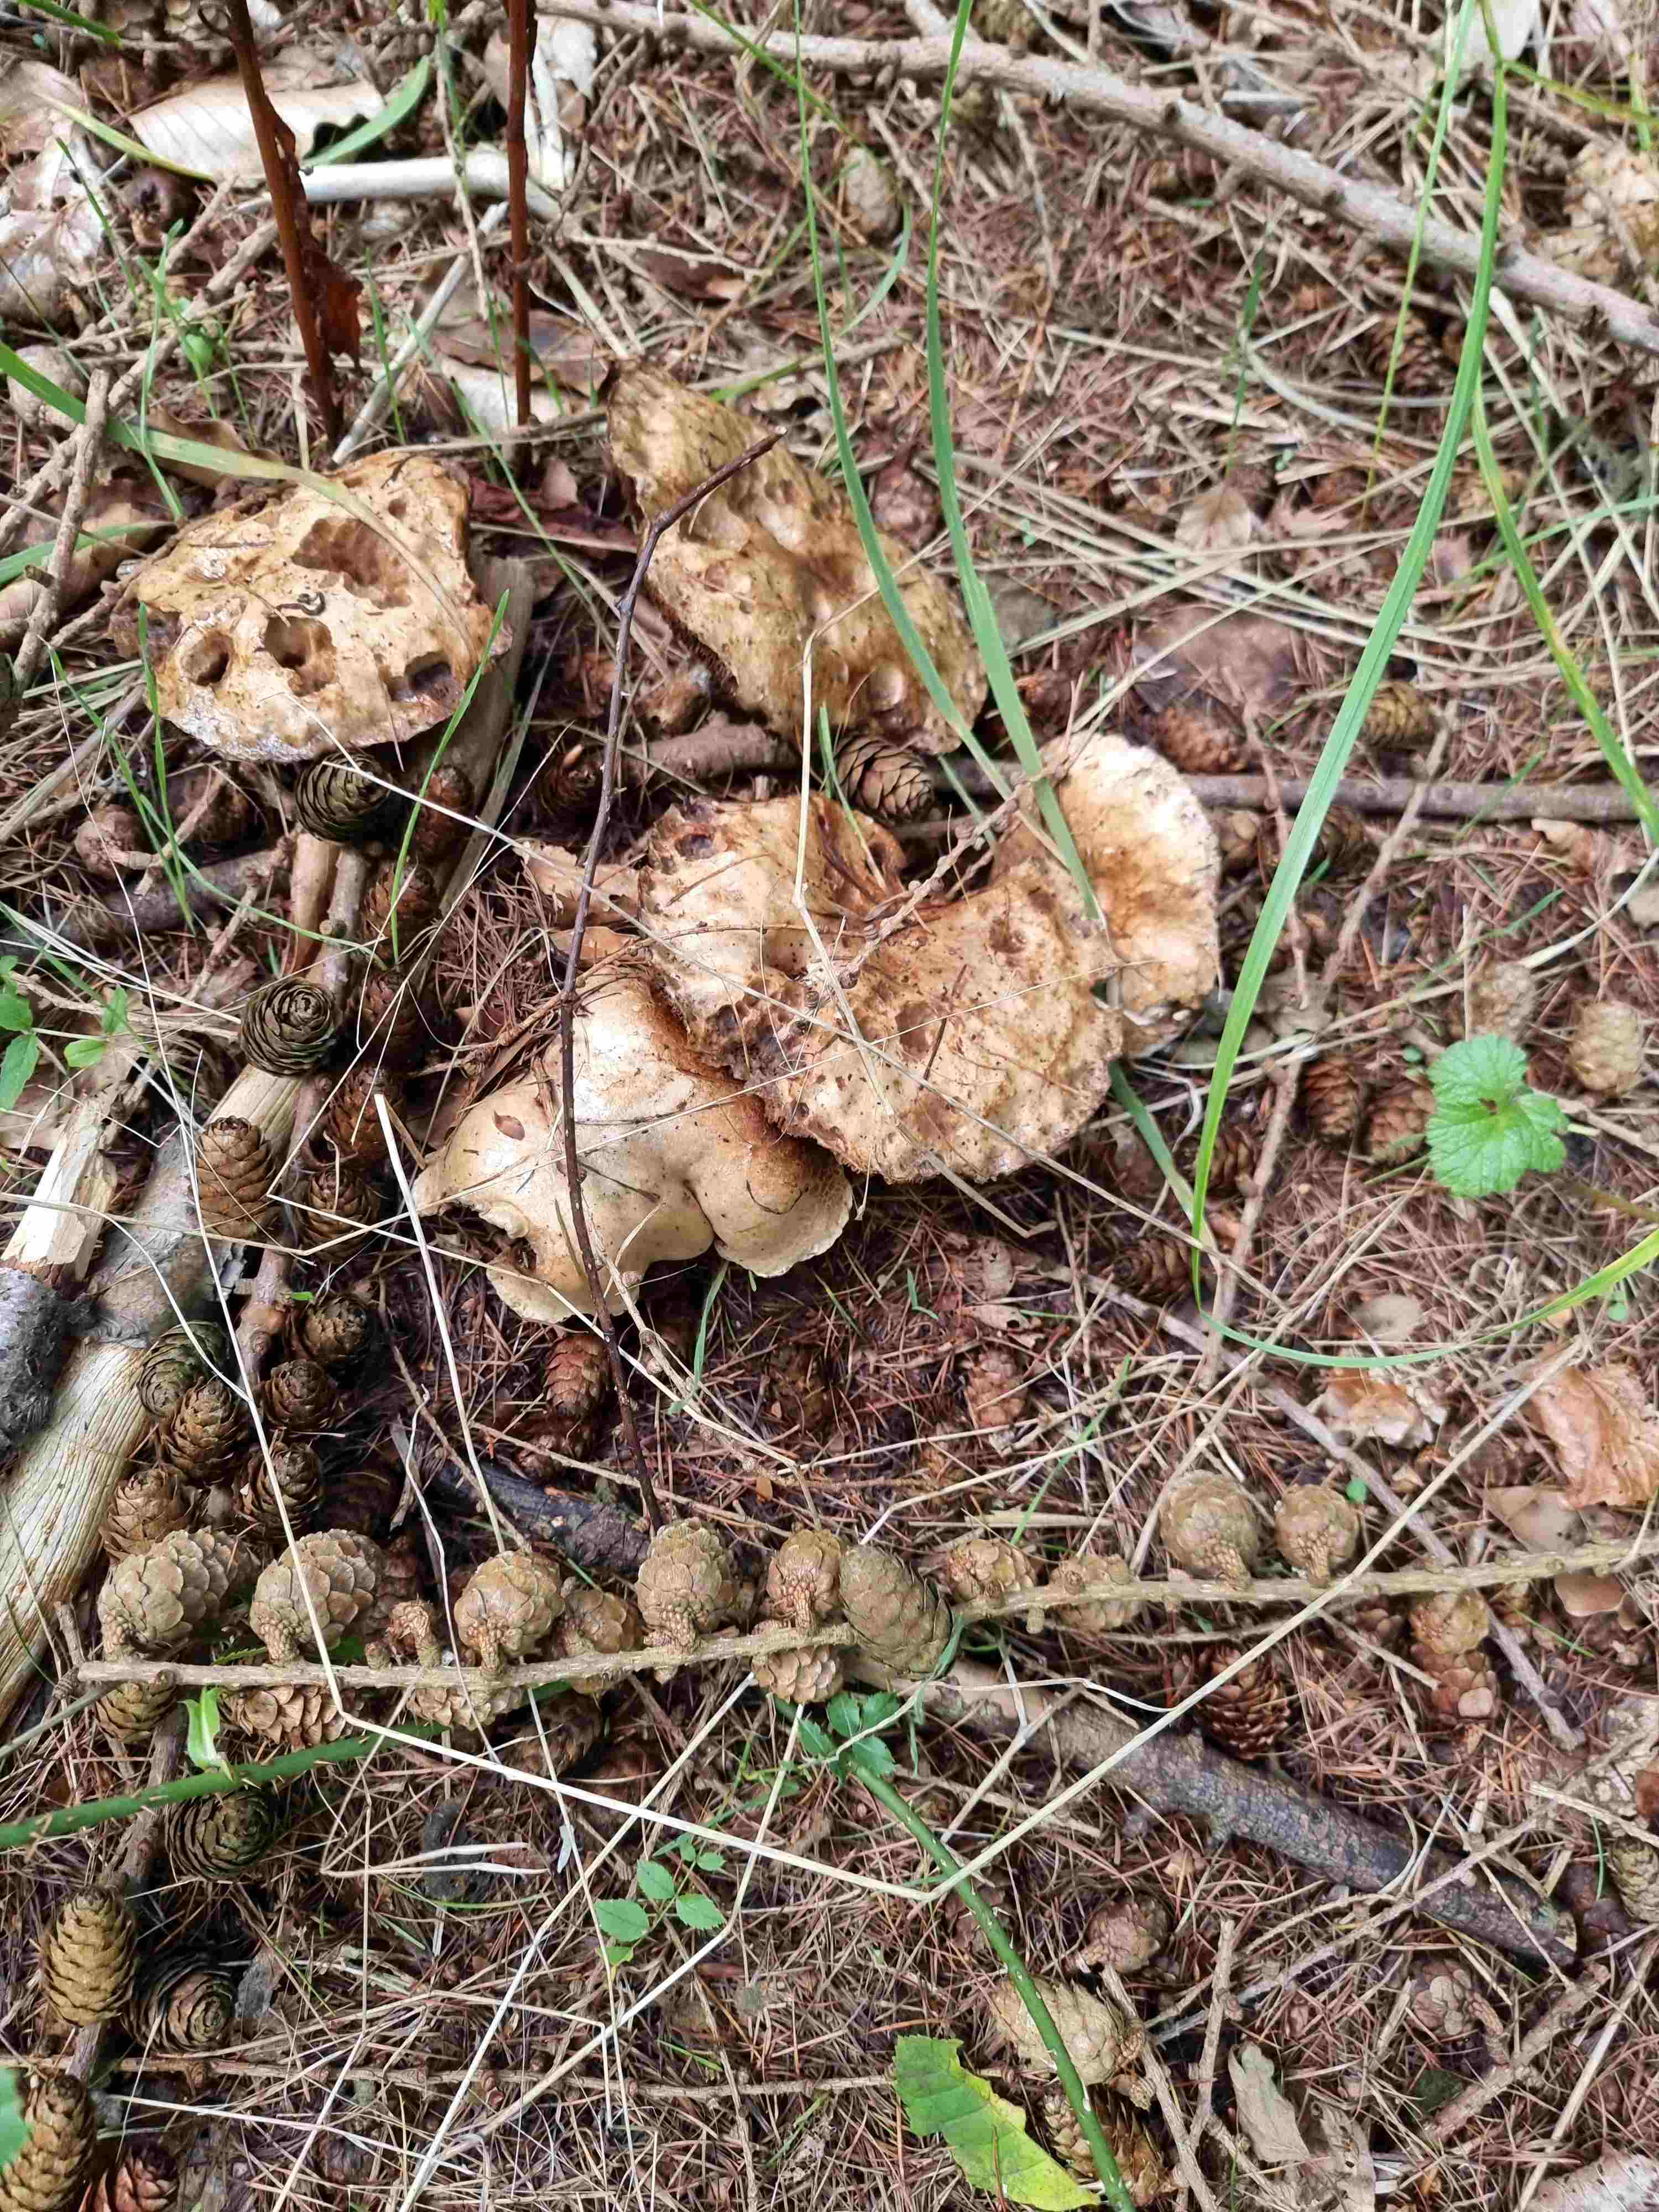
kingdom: Fungi
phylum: Basidiomycota
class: Agaricomycetes
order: Boletales
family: Suillaceae
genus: Suillus
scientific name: Suillus viscidus
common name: olivengrå slimrørhat
